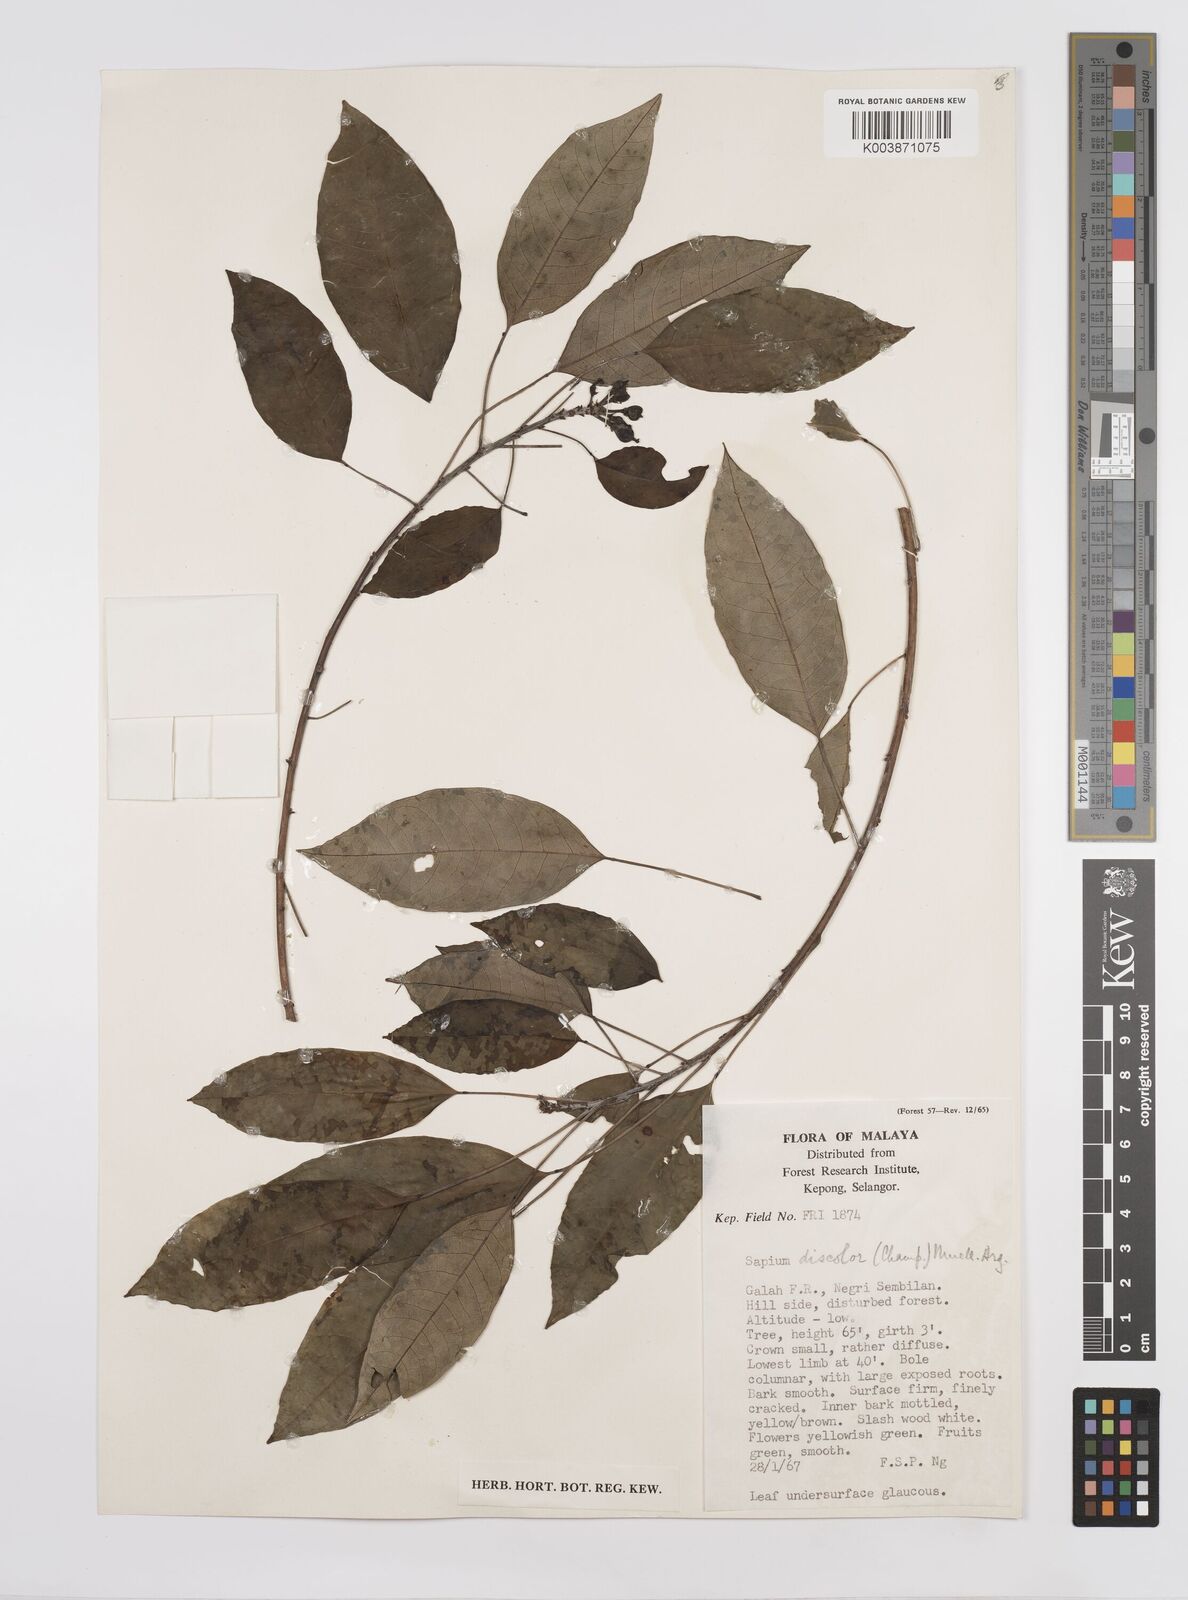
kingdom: Plantae
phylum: Tracheophyta
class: Magnoliopsida
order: Malpighiales
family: Euphorbiaceae
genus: Triadica
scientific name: Triadica cochinchinensis
